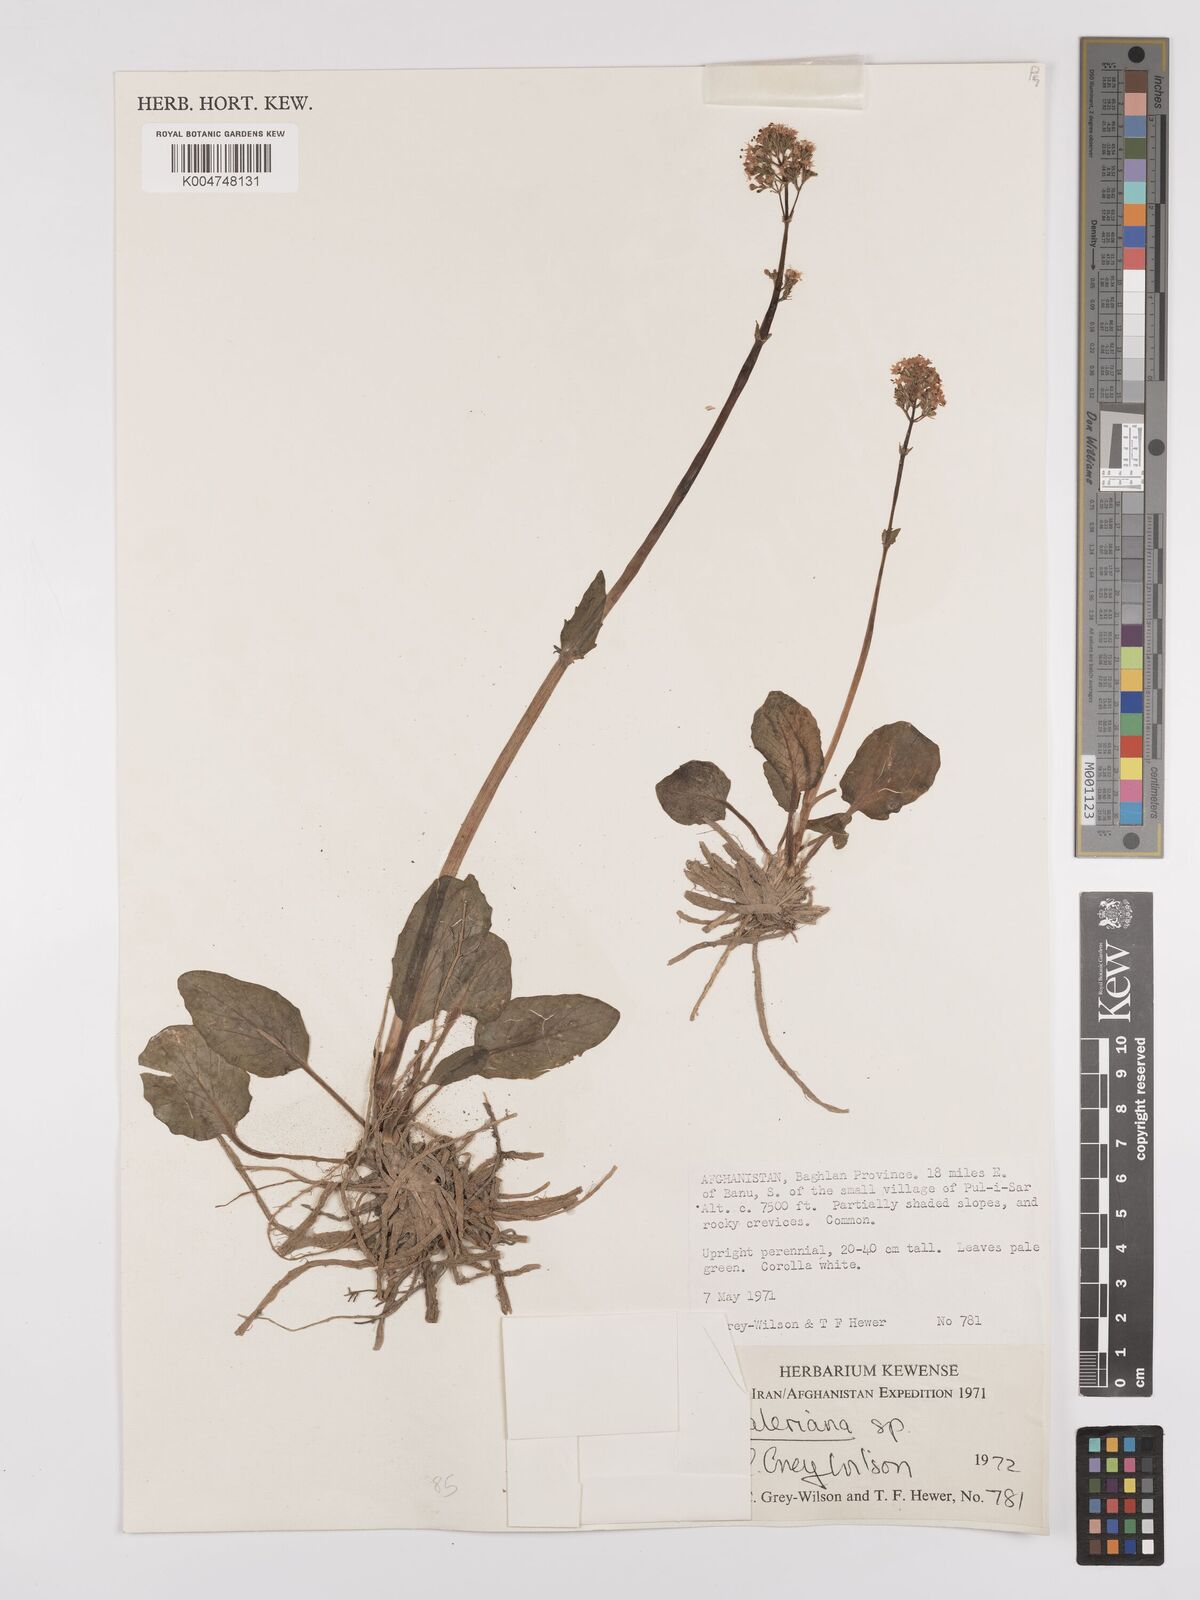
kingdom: Plantae
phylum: Tracheophyta
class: Magnoliopsida
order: Dipsacales
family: Caprifoliaceae
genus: Valeriana
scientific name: Valeriana
